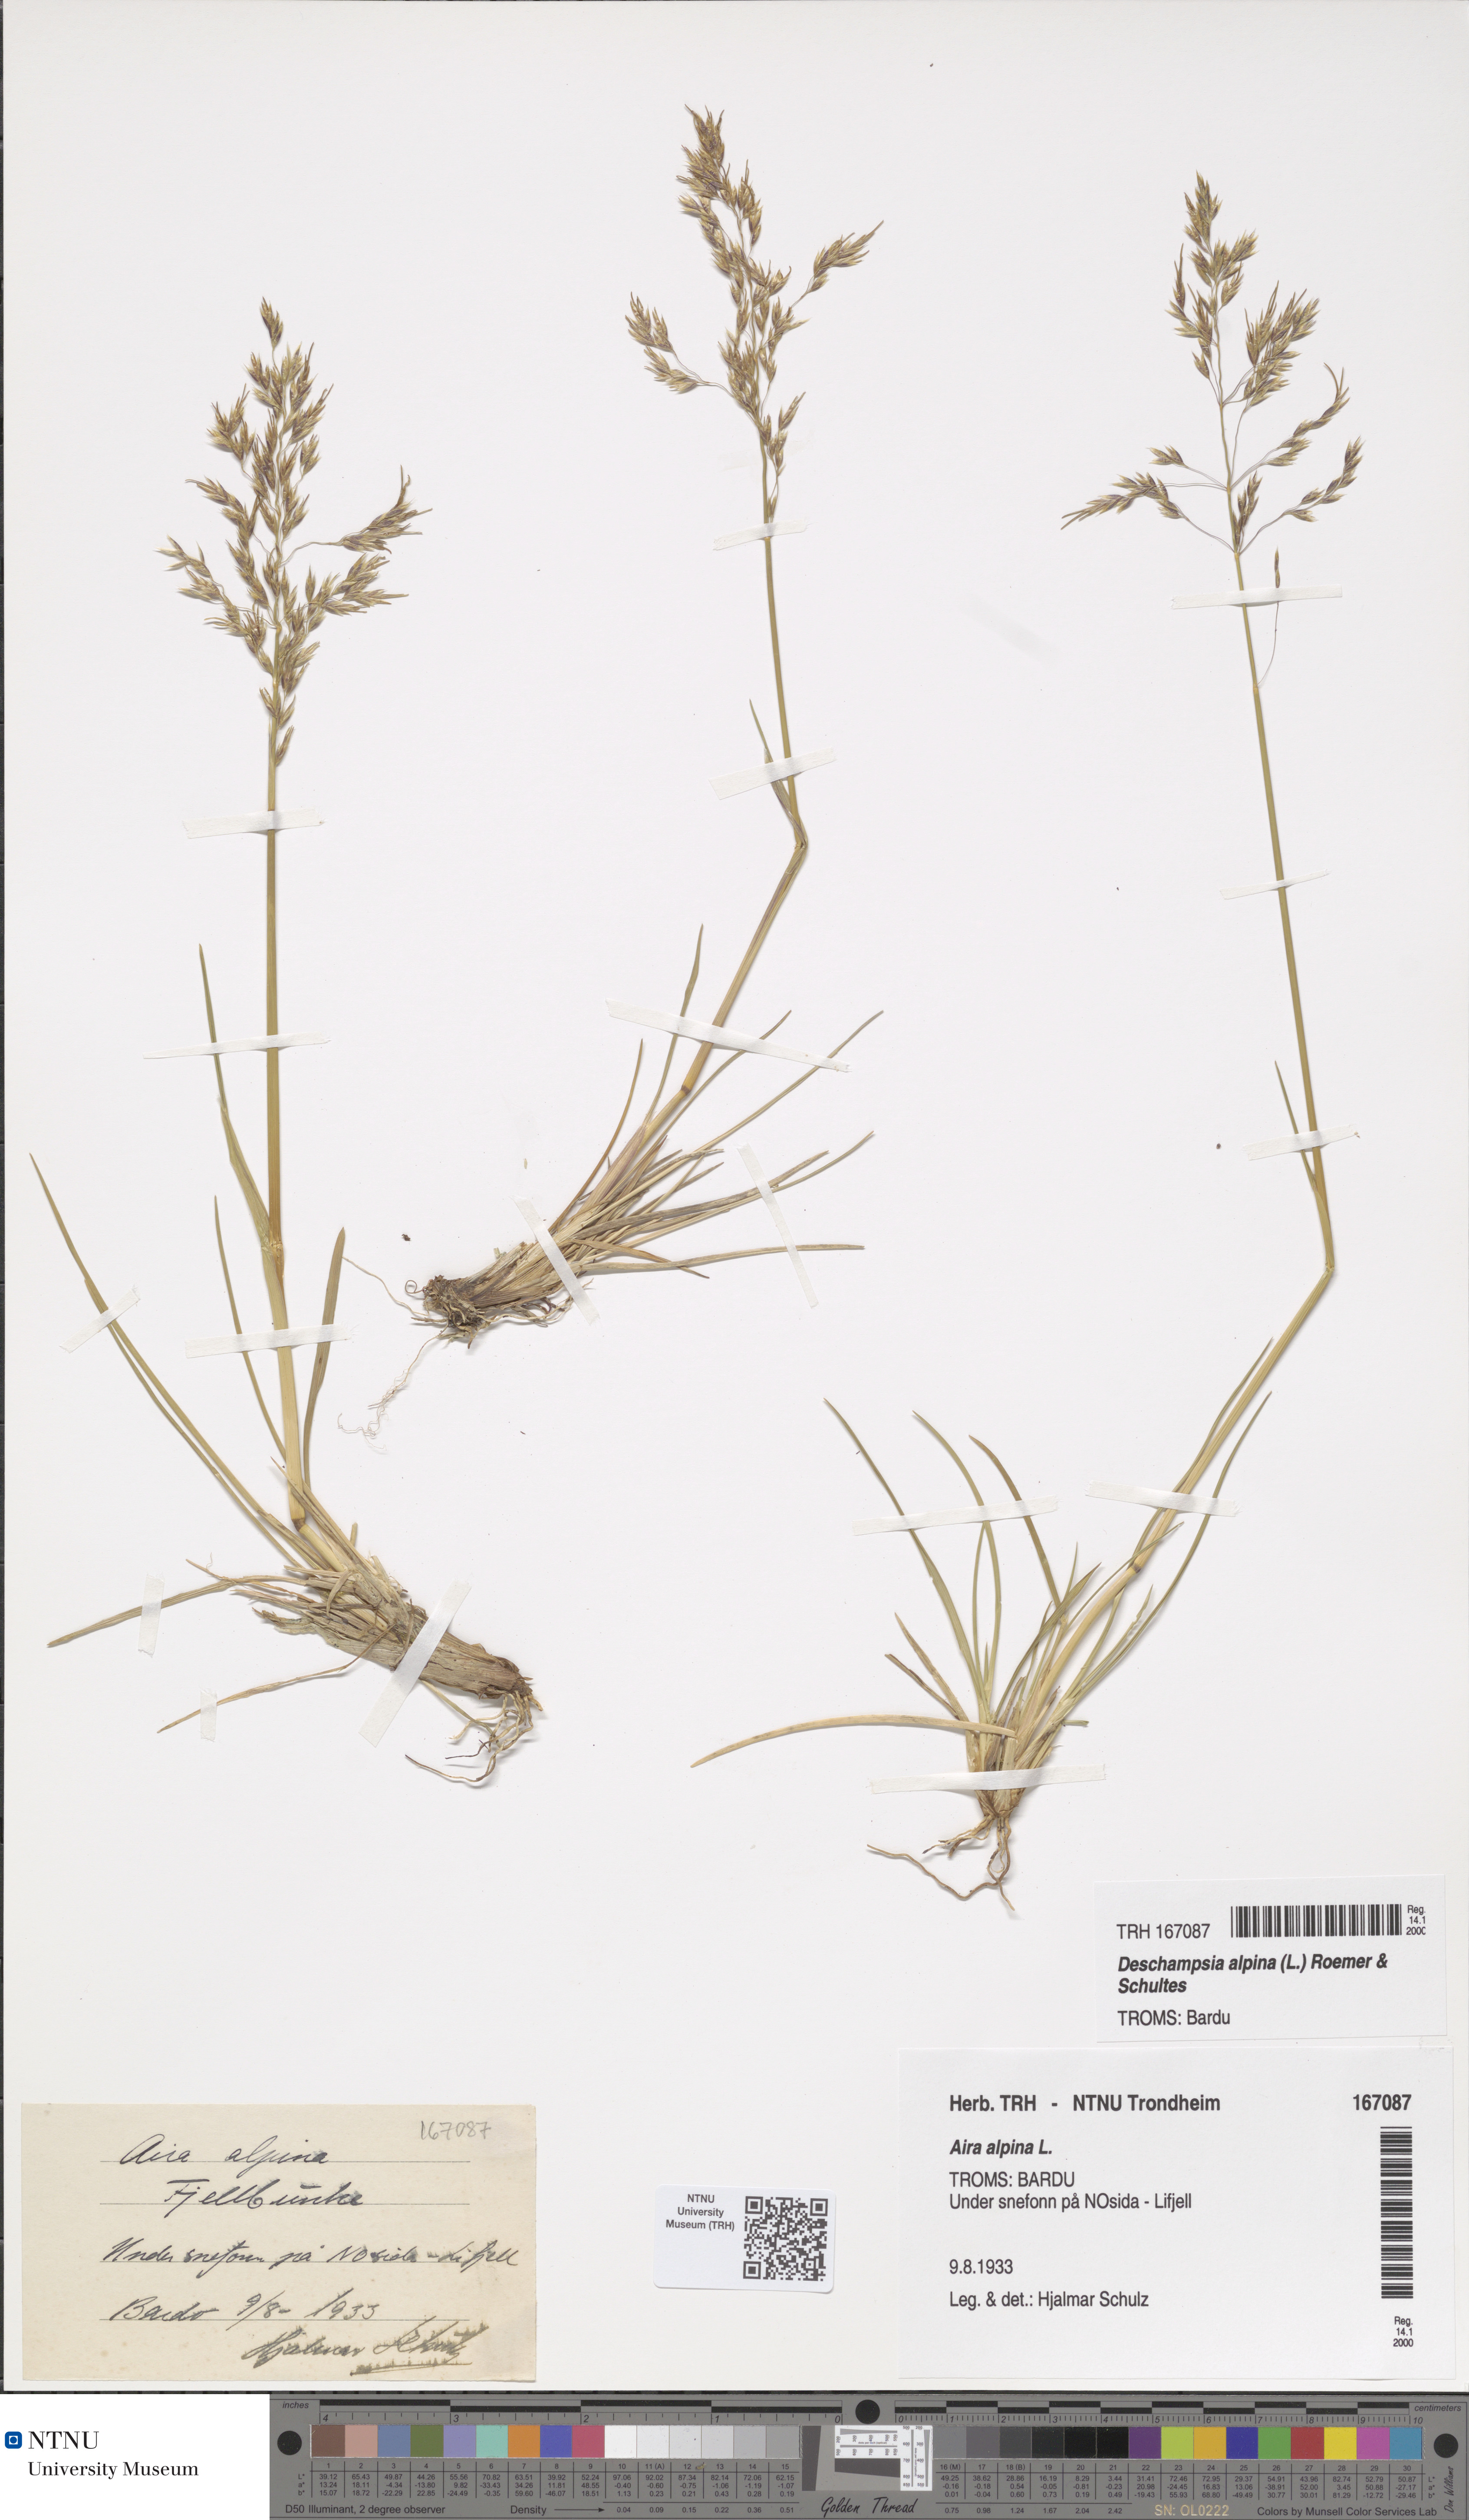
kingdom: Plantae
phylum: Tracheophyta
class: Liliopsida
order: Poales
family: Poaceae
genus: Deschampsia
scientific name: Deschampsia cespitosa
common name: Tufted hair-grass
